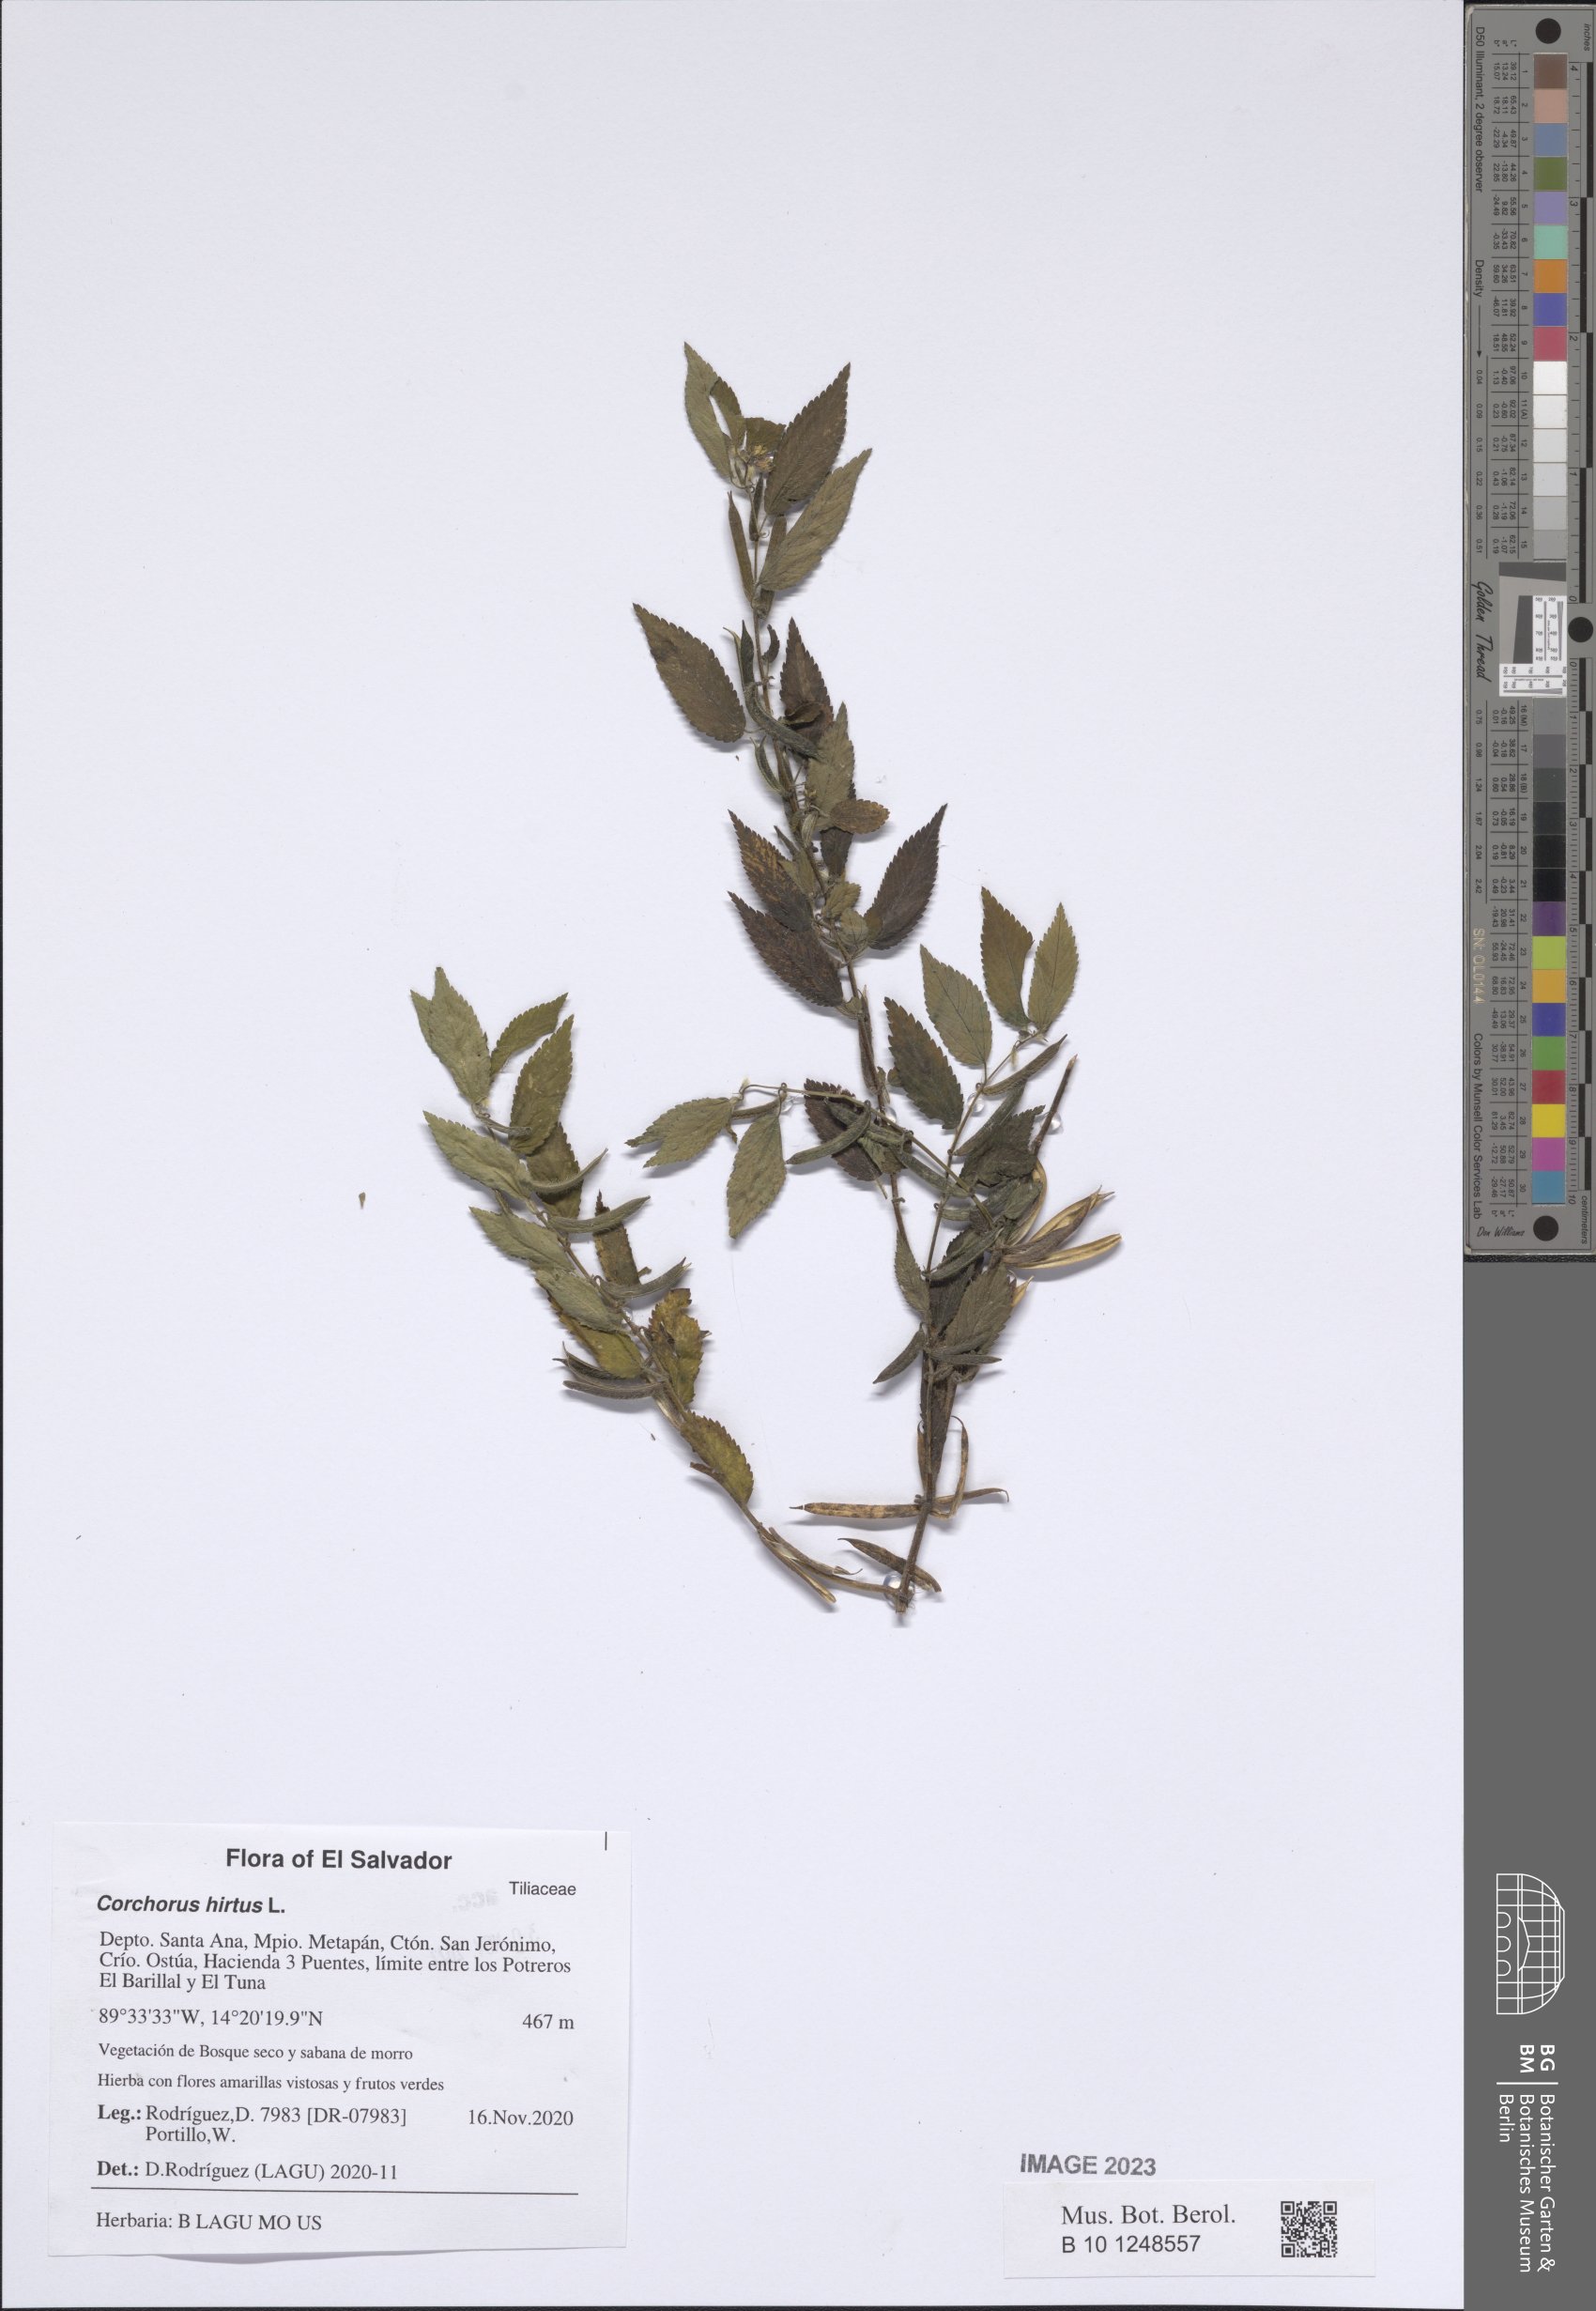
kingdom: Plantae
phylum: Tracheophyta
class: Magnoliopsida
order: Malvales
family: Malvaceae
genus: Corchorus
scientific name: Corchorus hirtus
